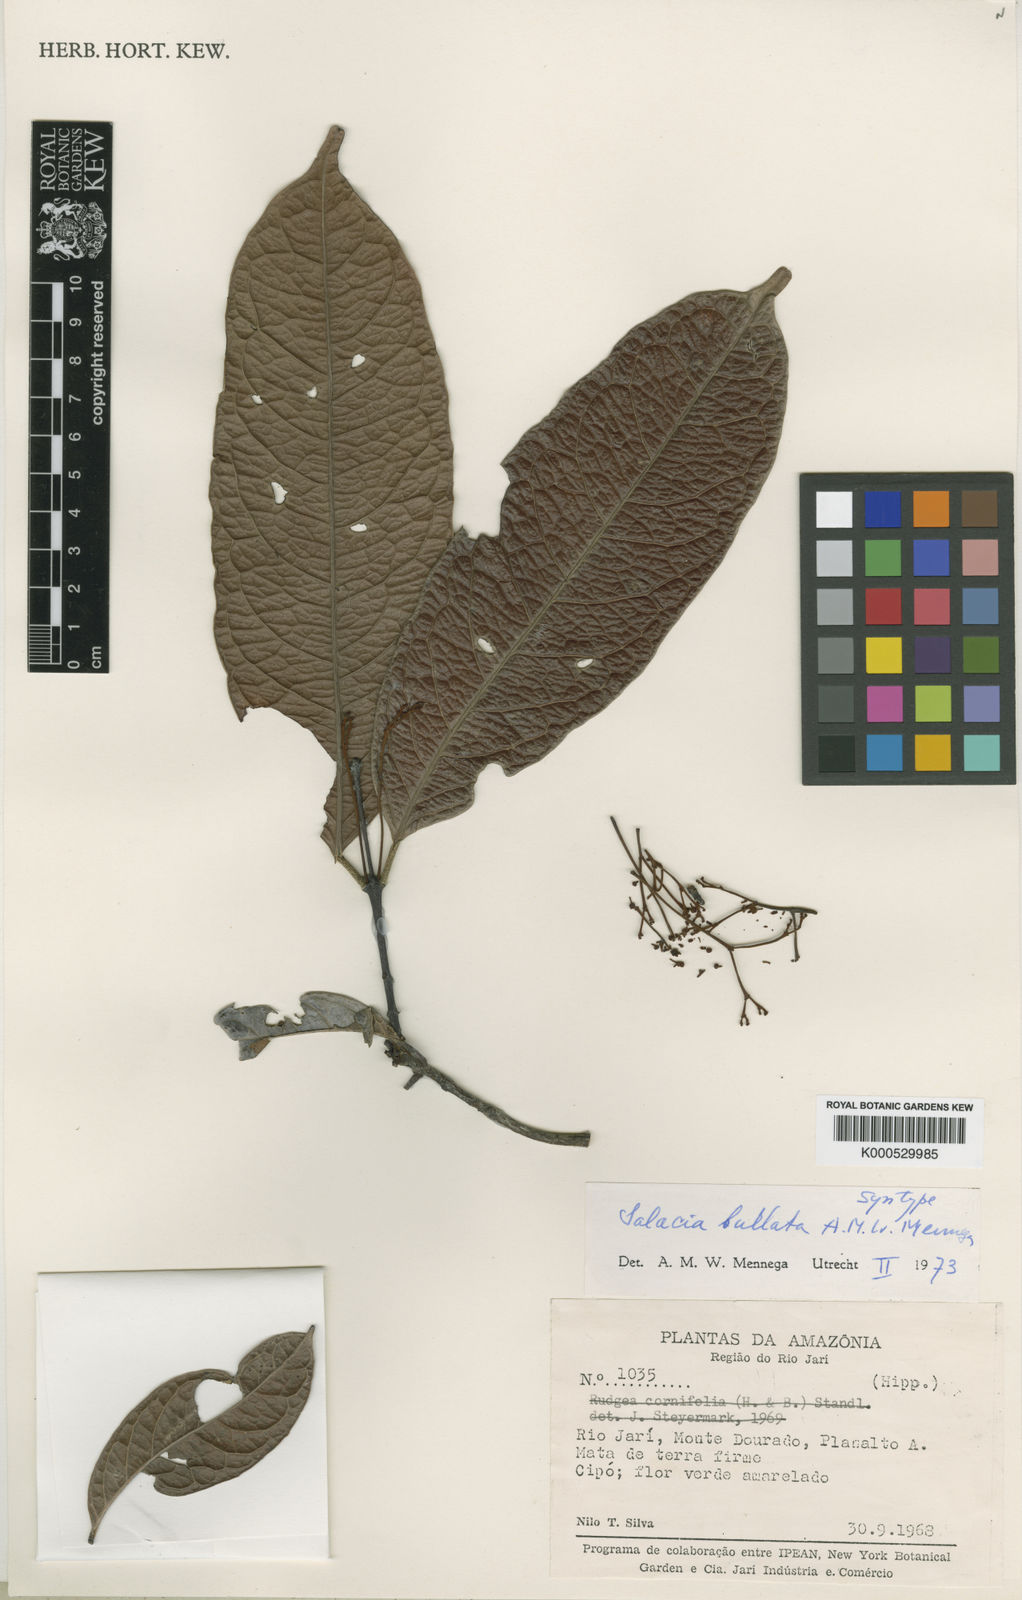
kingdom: Plantae
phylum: Tracheophyta
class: Magnoliopsida
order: Celastrales
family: Celastraceae
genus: Salacia
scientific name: Salacia amplectens
